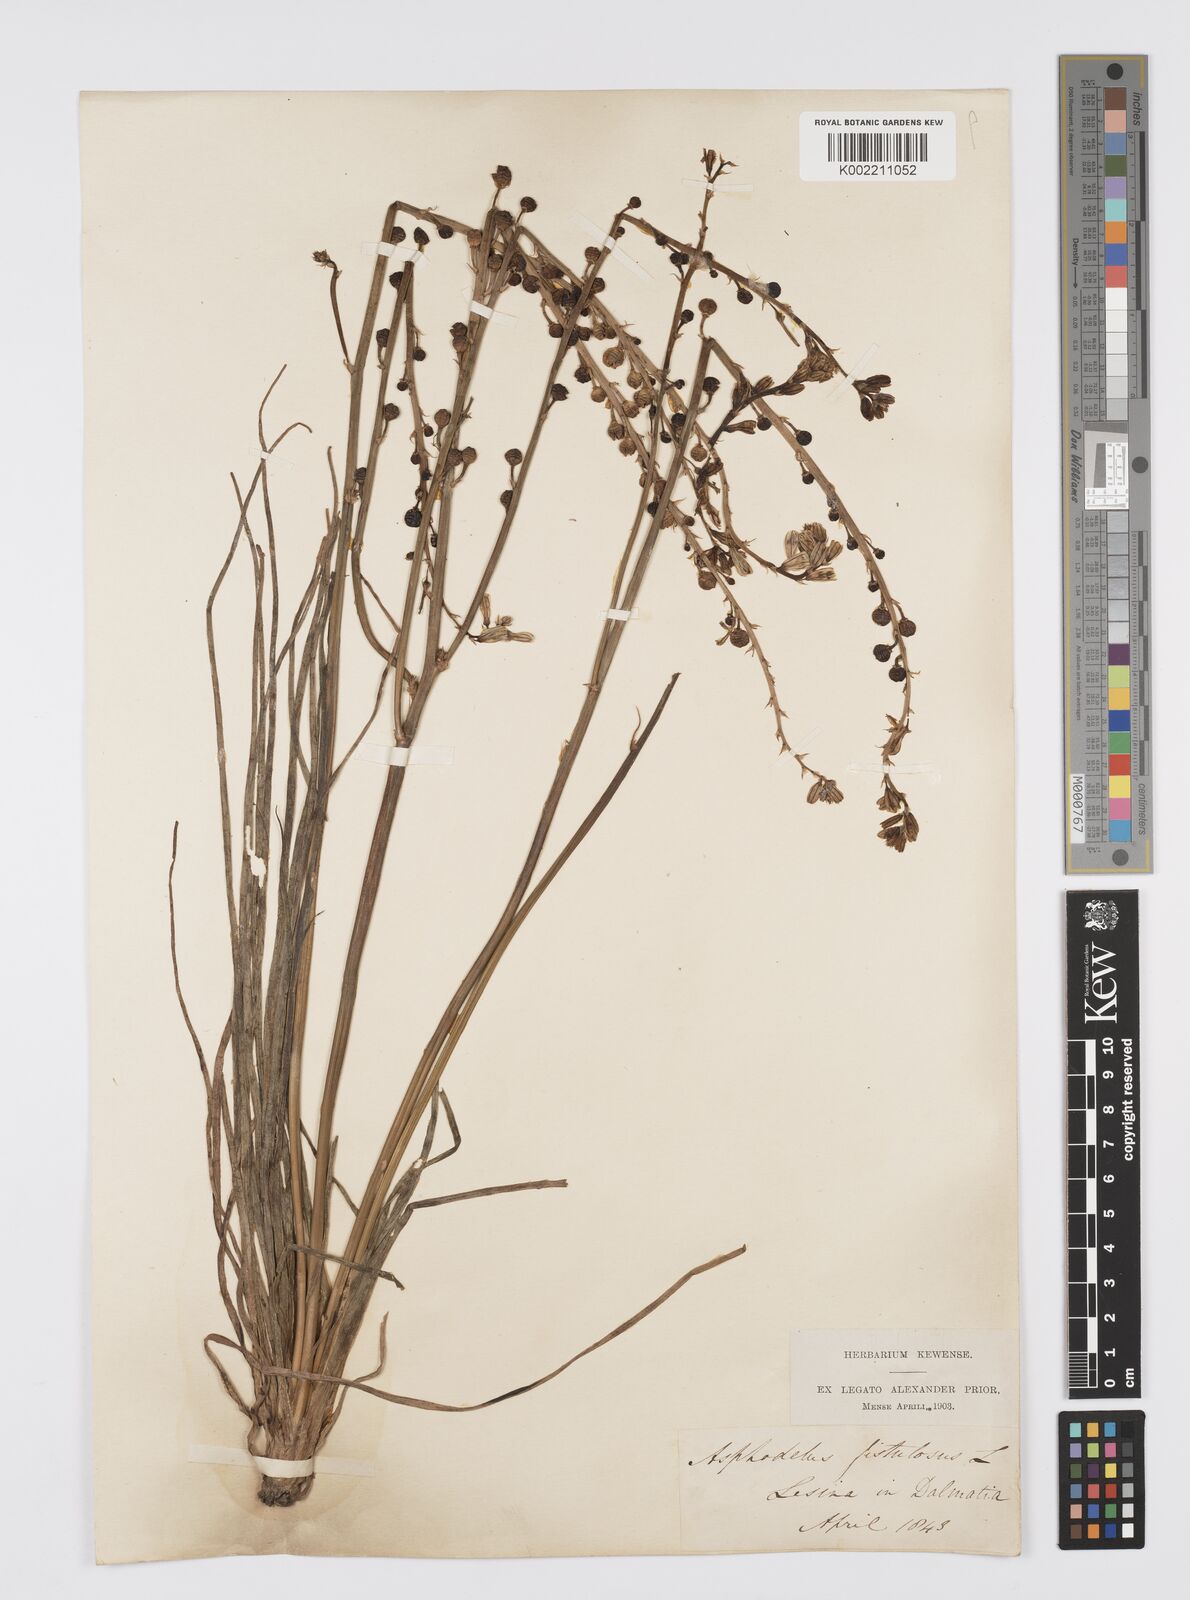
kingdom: Plantae
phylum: Tracheophyta
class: Liliopsida
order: Asparagales
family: Asphodelaceae
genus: Asphodelus
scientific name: Asphodelus fistulosus
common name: Onionweed
